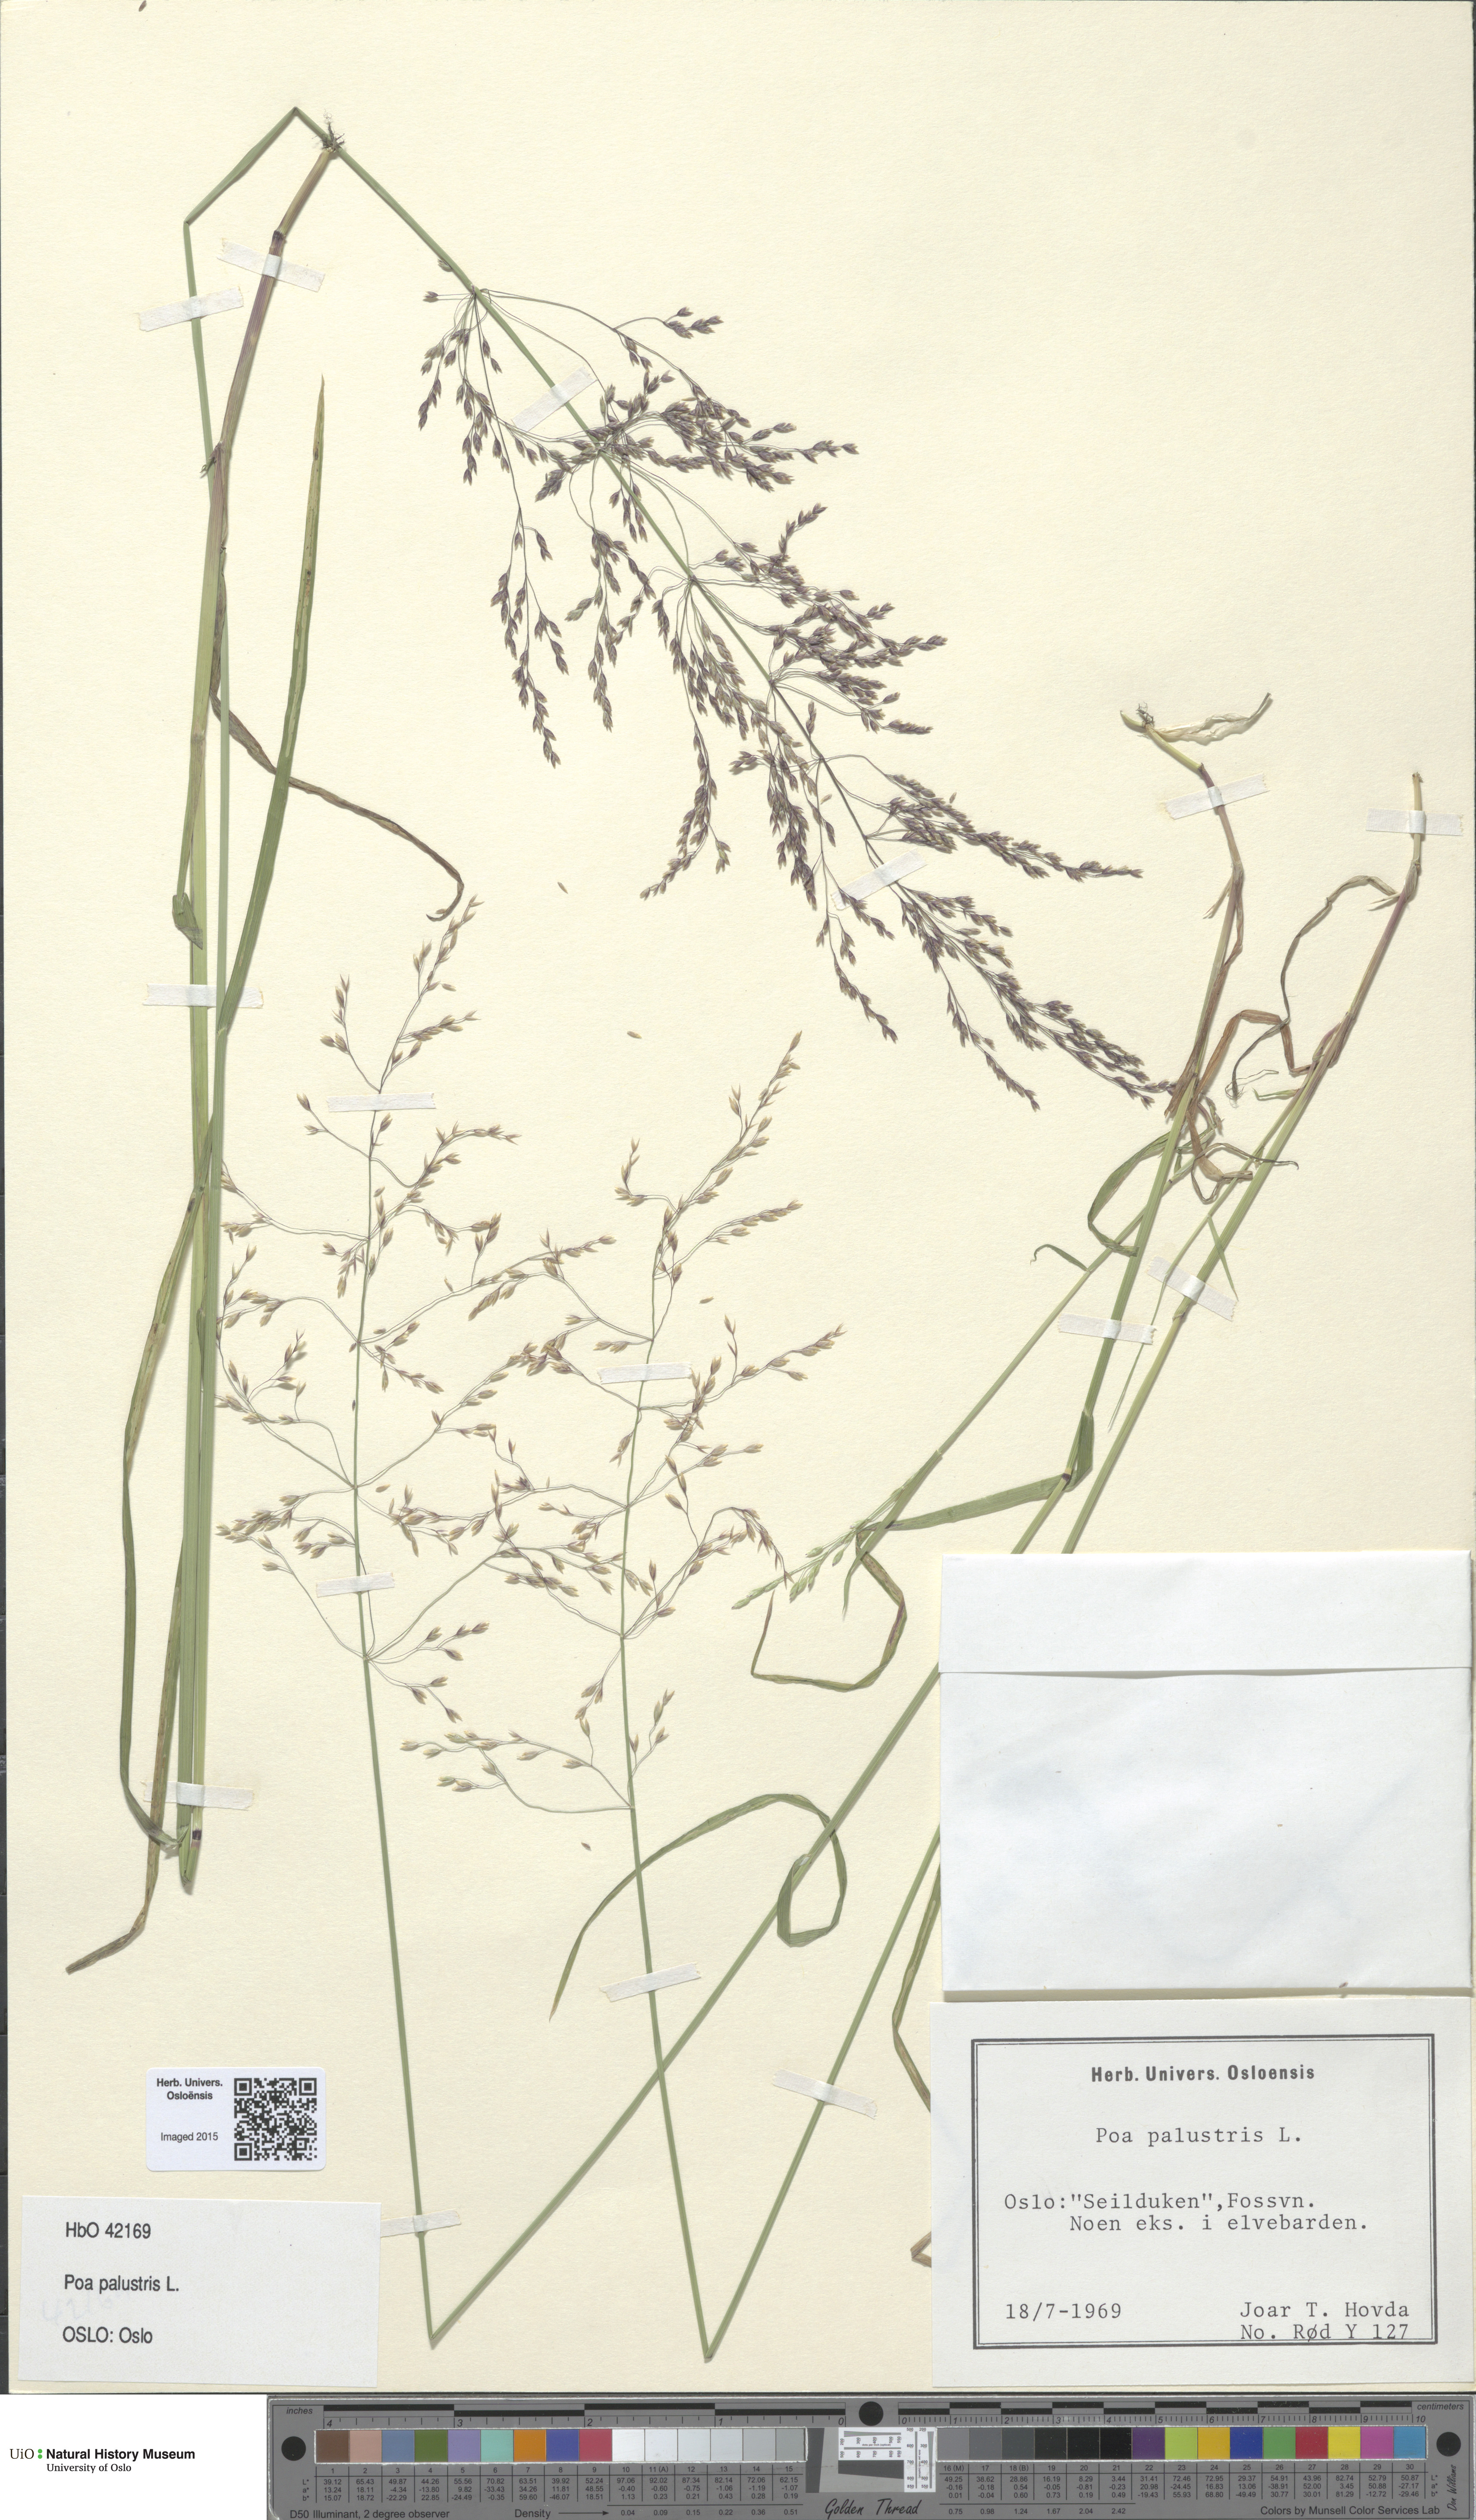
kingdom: Plantae
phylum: Tracheophyta
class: Liliopsida
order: Poales
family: Poaceae
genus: Poa
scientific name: Poa palustris
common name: Swamp meadow-grass
